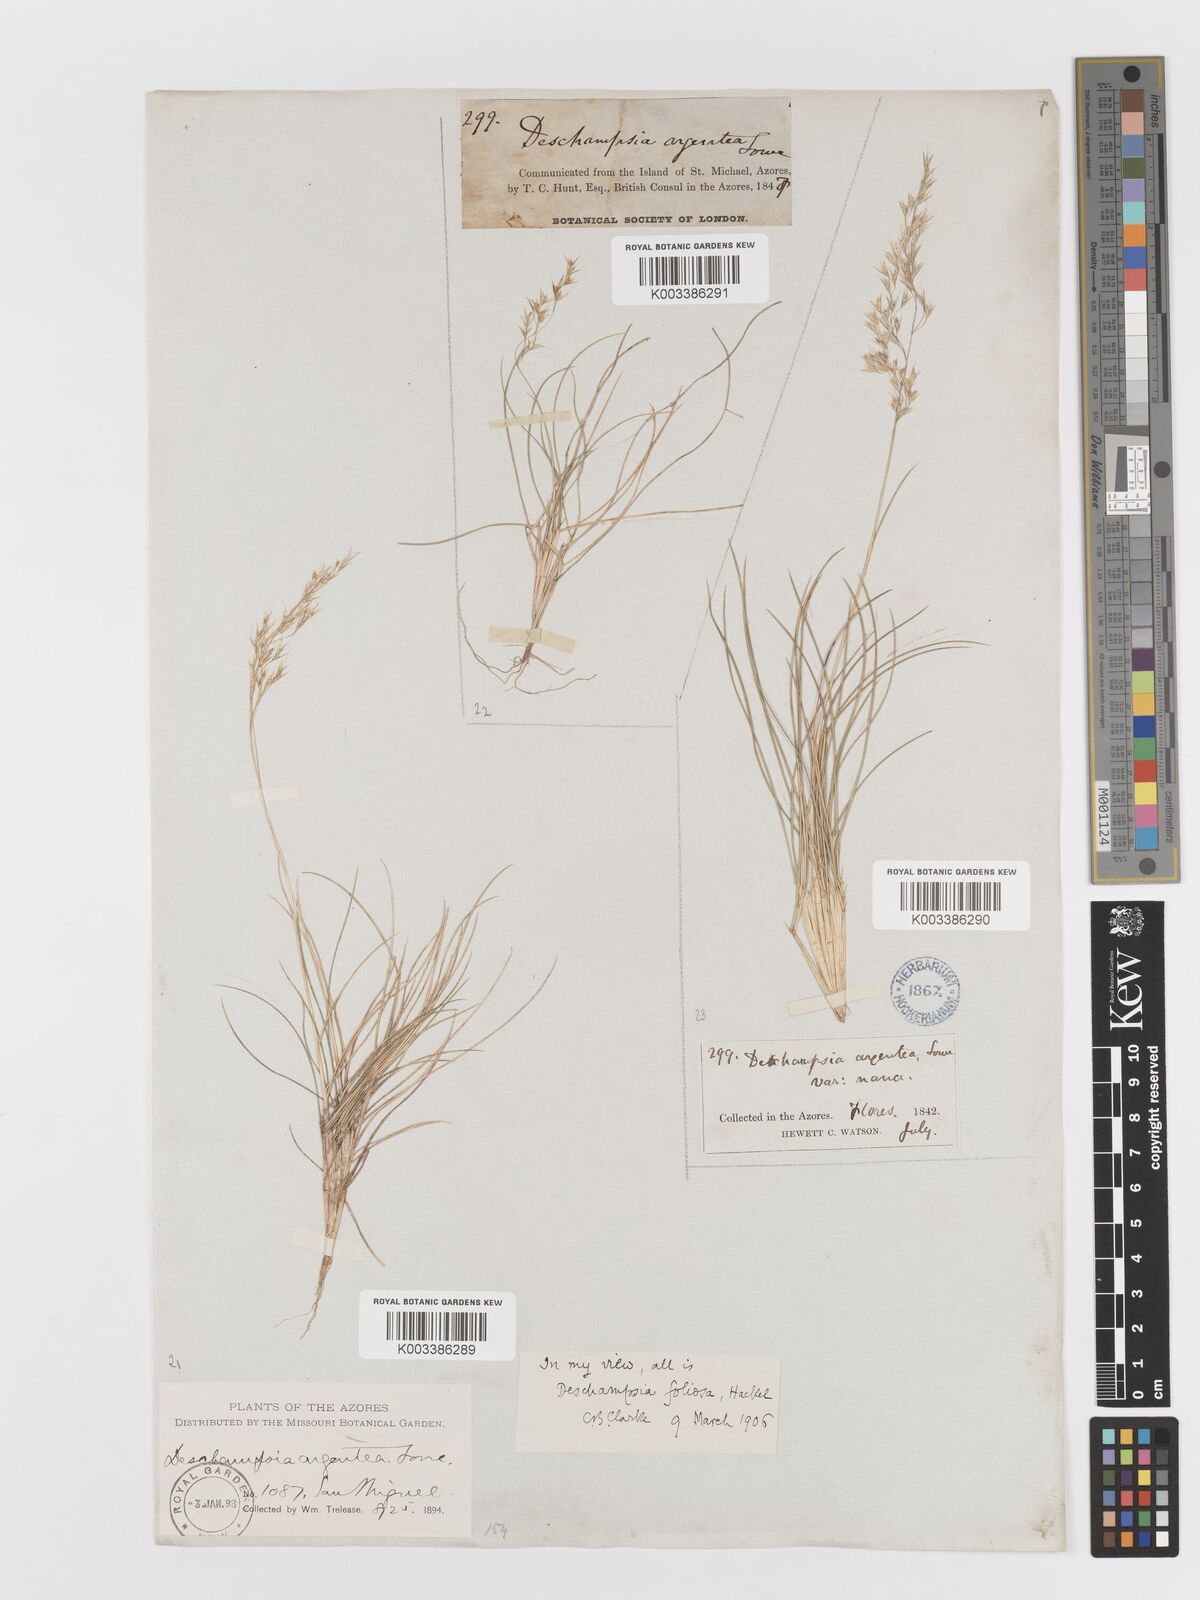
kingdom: Plantae
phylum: Tracheophyta
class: Liliopsida
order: Poales
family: Poaceae
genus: Avenella
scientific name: Avenella foliosa
